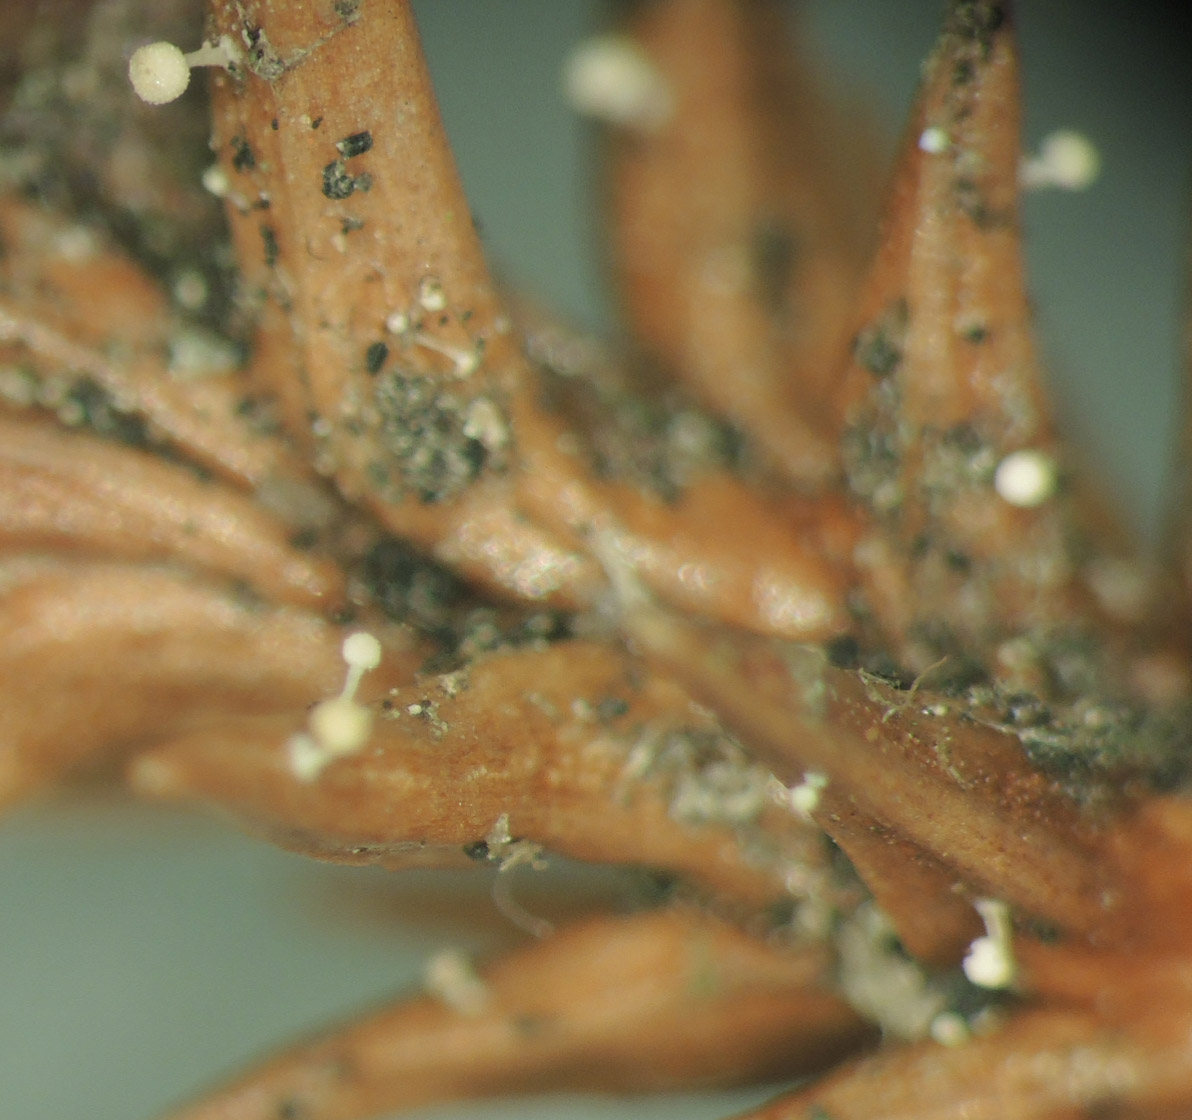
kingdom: Fungi
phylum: Basidiomycota
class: Agaricomycetes
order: Agaricales
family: Physalacriaceae
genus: Physalacria
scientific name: Physalacria cryptomeriae
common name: japangran-boldkølle
